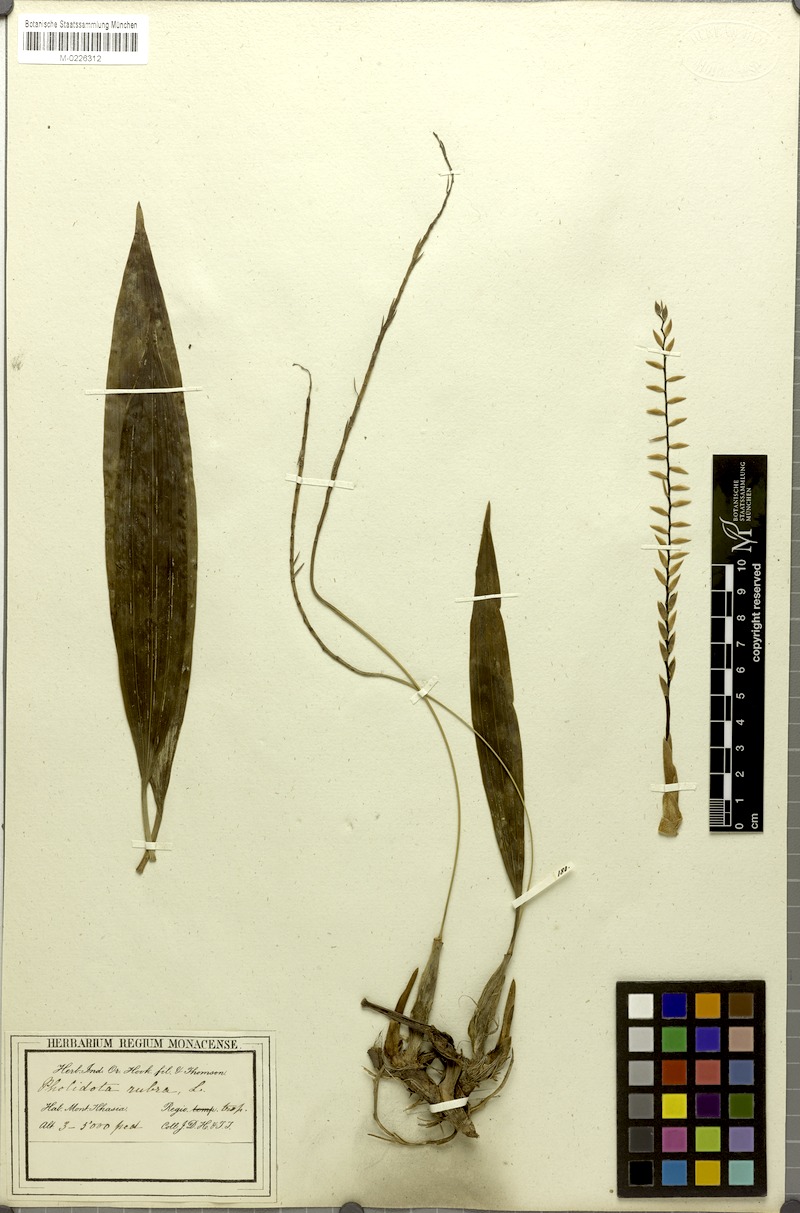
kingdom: Plantae
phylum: Tracheophyta
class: Liliopsida
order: Asparagales
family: Orchidaceae
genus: Coelogyne
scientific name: Coelogyne rubra
